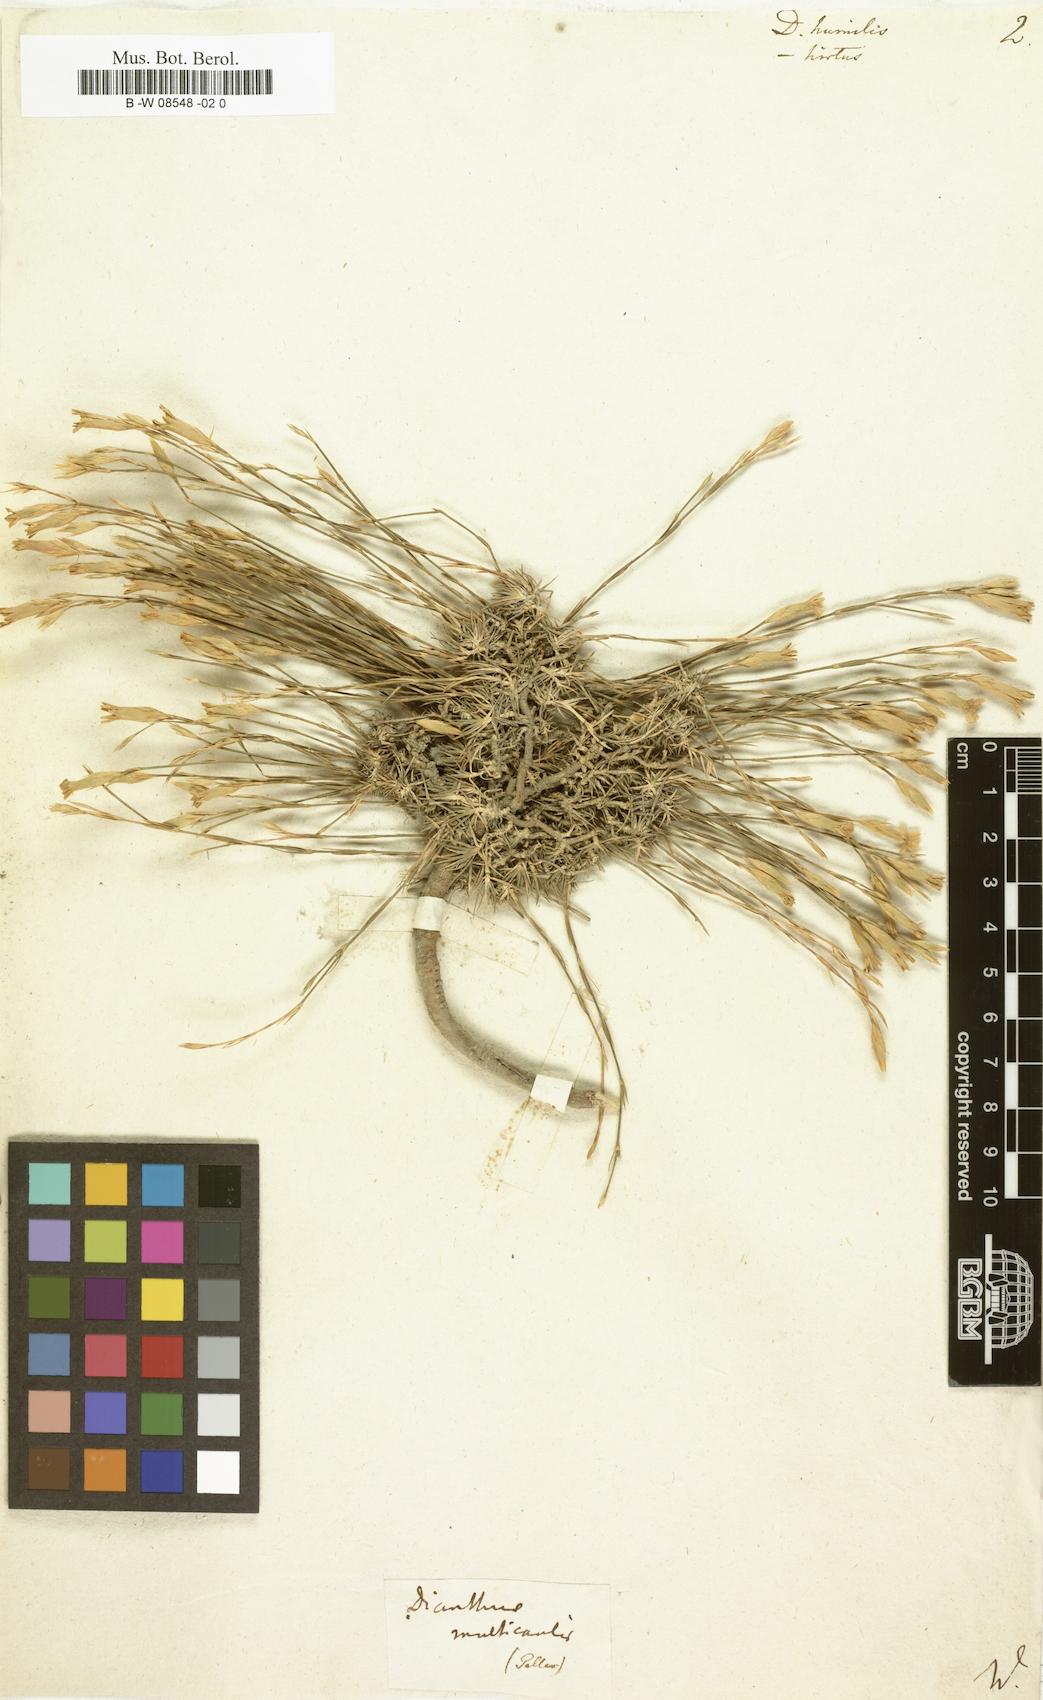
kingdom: Plantae
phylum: Tracheophyta
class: Magnoliopsida
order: Caryophyllales
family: Caryophyllaceae
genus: Dianthus
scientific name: Dianthus humilis
